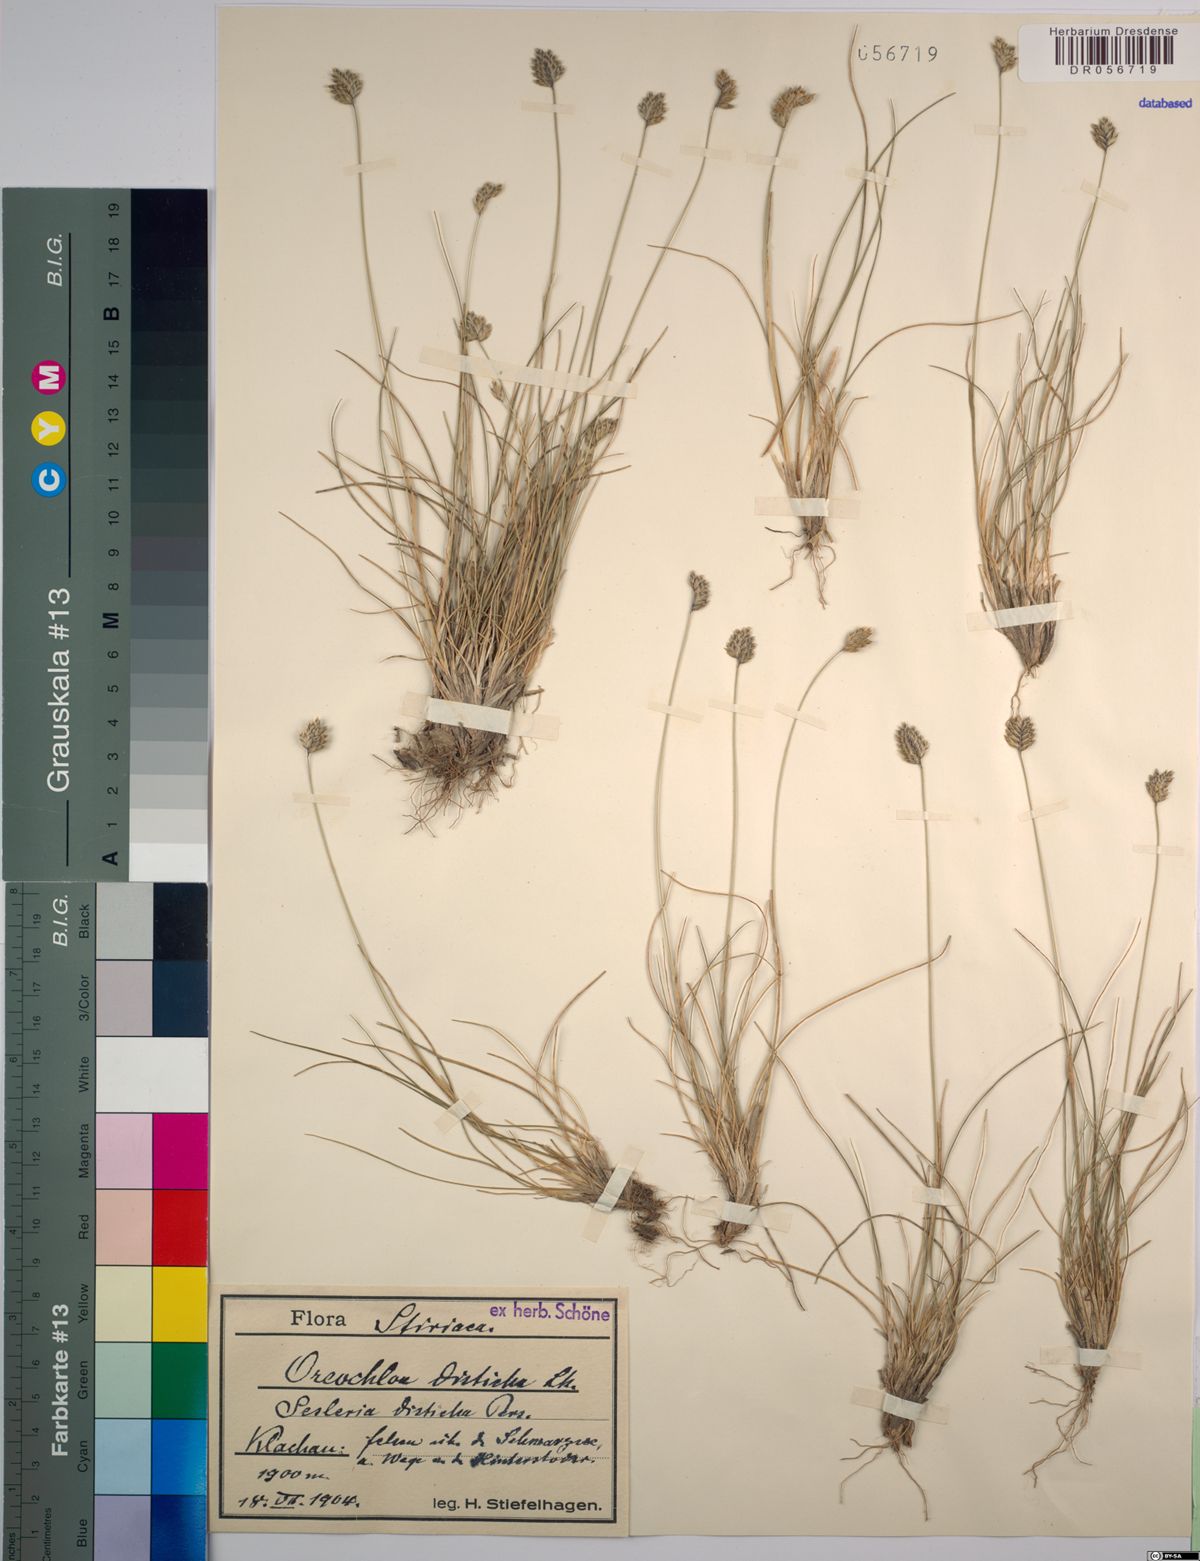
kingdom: Plantae
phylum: Tracheophyta
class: Liliopsida
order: Poales
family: Poaceae
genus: Oreochloa
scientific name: Oreochloa disticha
